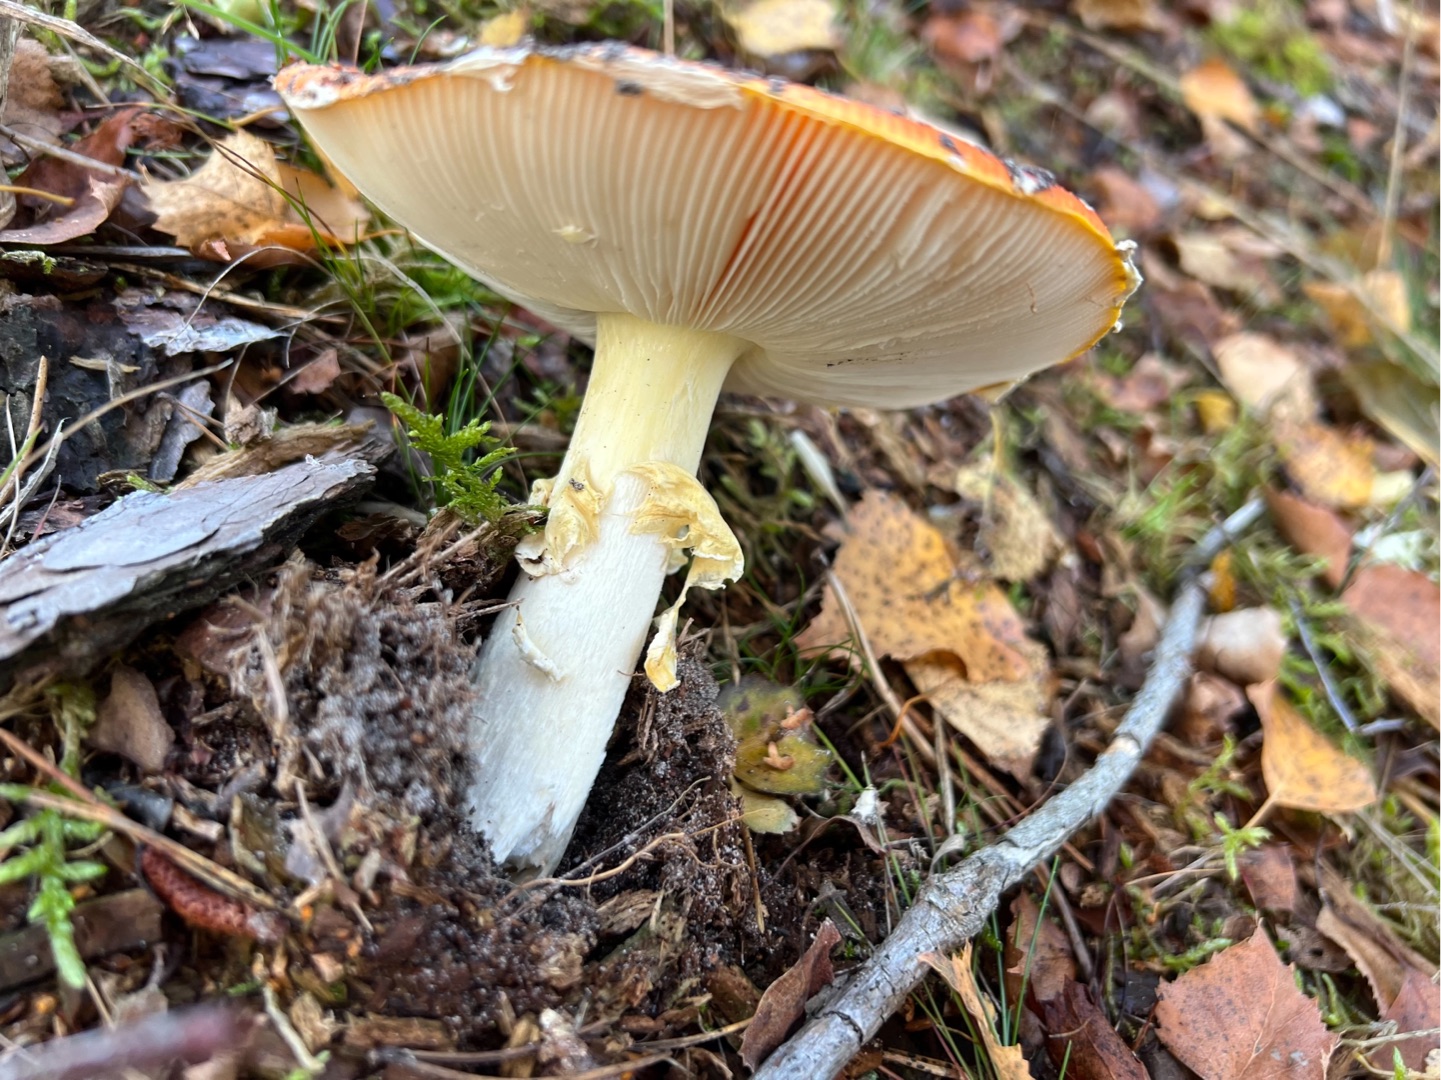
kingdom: Fungi
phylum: Basidiomycota
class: Agaricomycetes
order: Agaricales
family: Amanitaceae
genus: Amanita
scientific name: Amanita muscaria
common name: Rød fluesvamp
